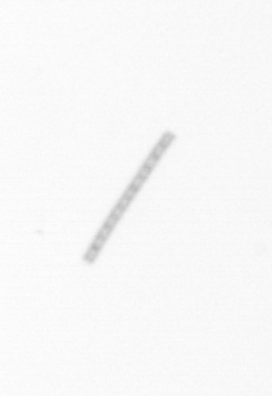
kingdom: Chromista
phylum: Ochrophyta
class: Bacillariophyceae
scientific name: Bacillariophyceae
